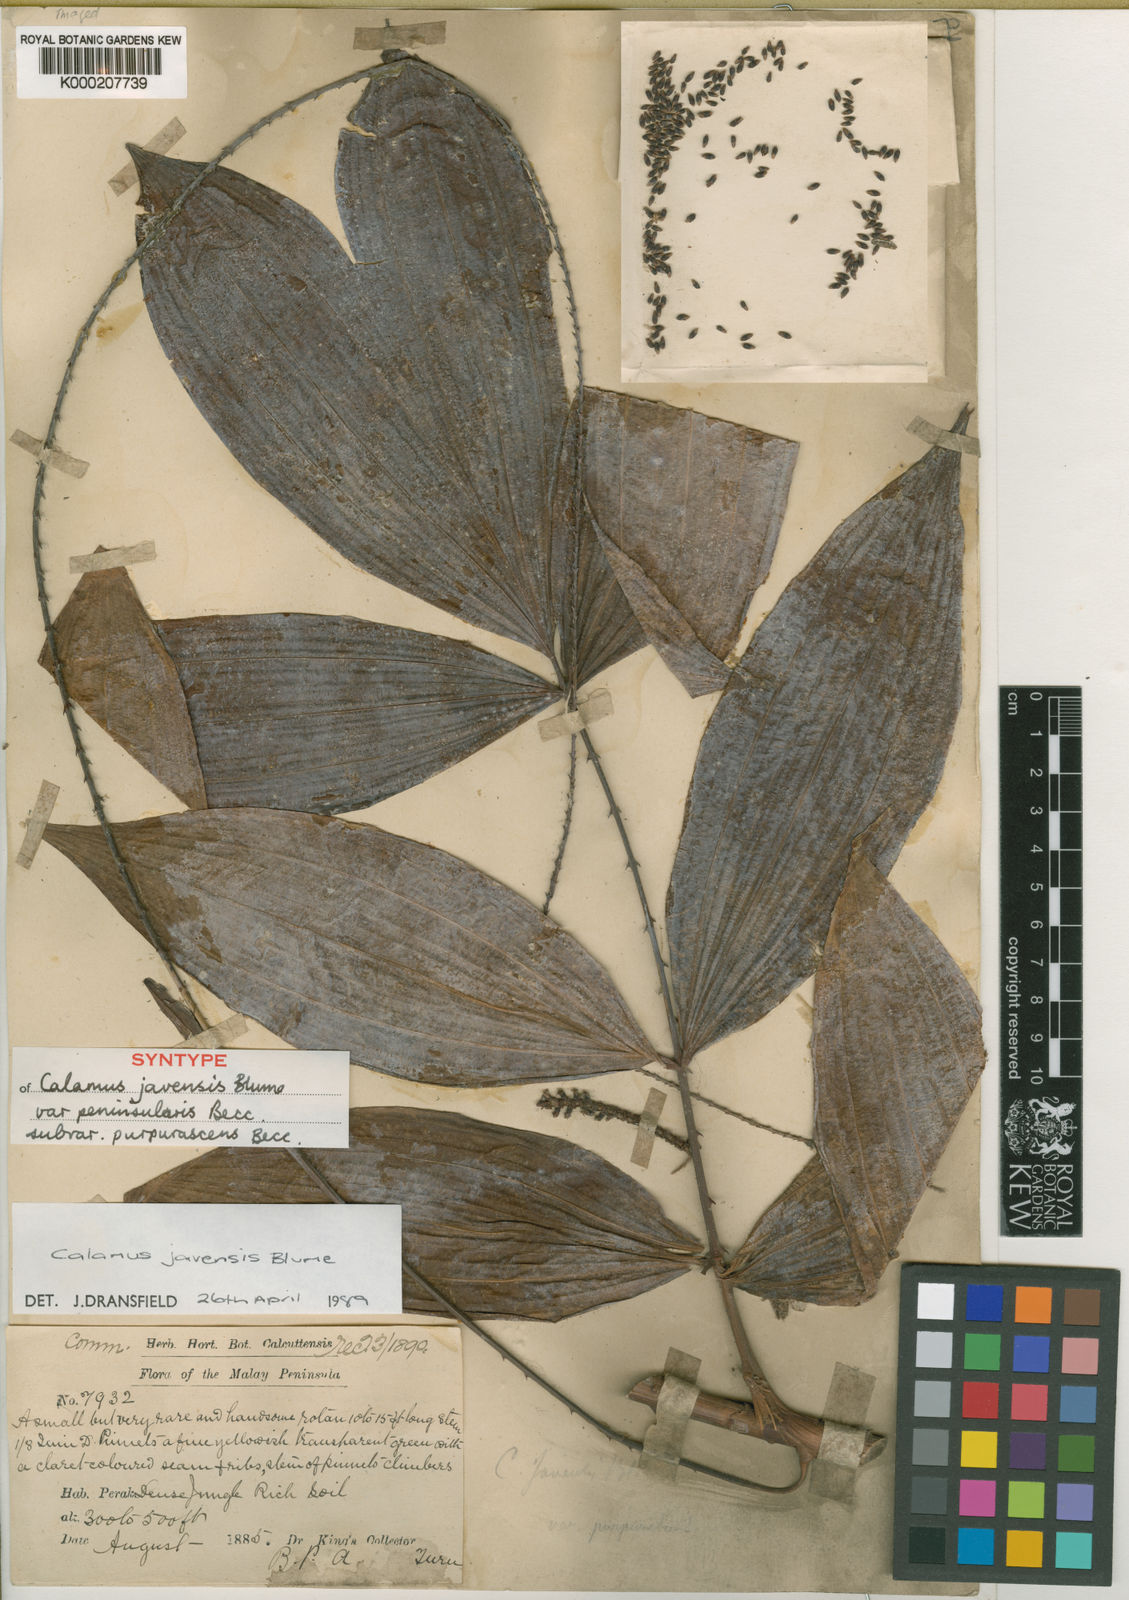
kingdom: Plantae
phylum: Tracheophyta
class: Liliopsida
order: Arecales
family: Arecaceae
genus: Calamus
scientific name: Calamus javensis
